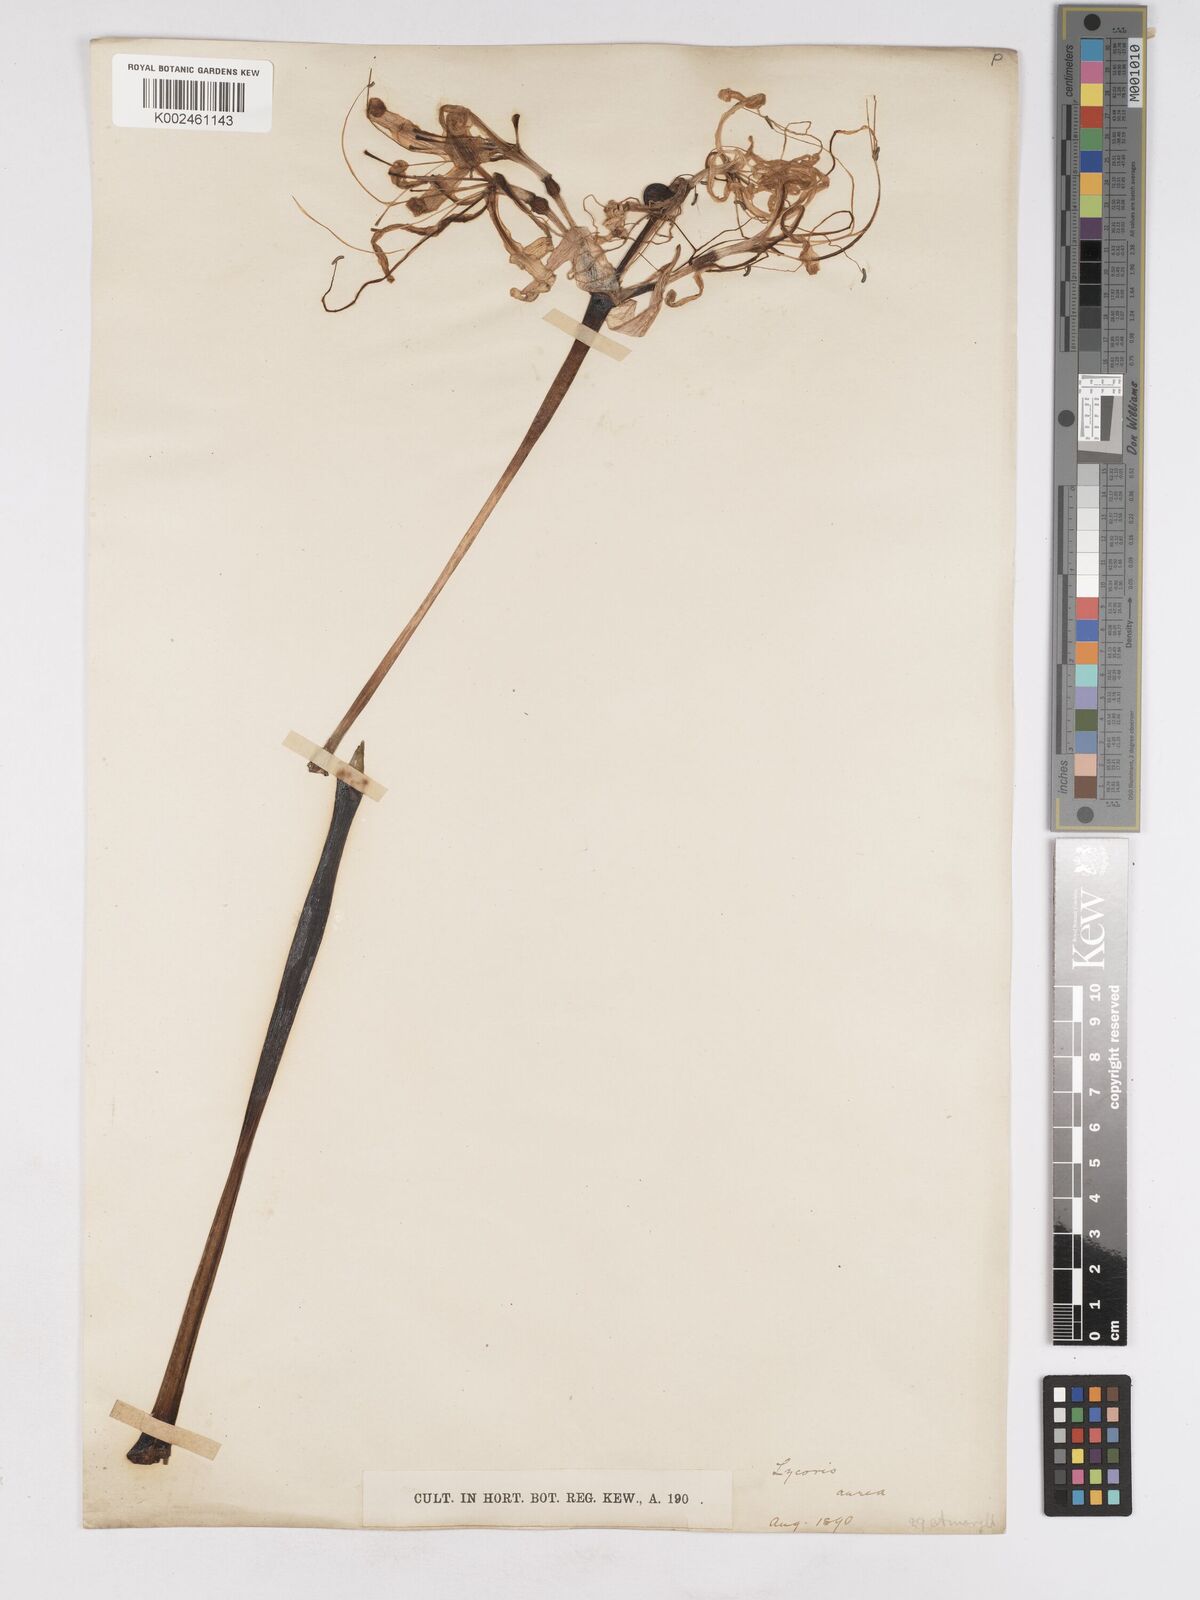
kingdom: Plantae
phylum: Tracheophyta
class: Liliopsida
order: Asparagales
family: Amaryllidaceae
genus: Lycoris
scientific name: Lycoris aurea
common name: Golden hurricane-lily
